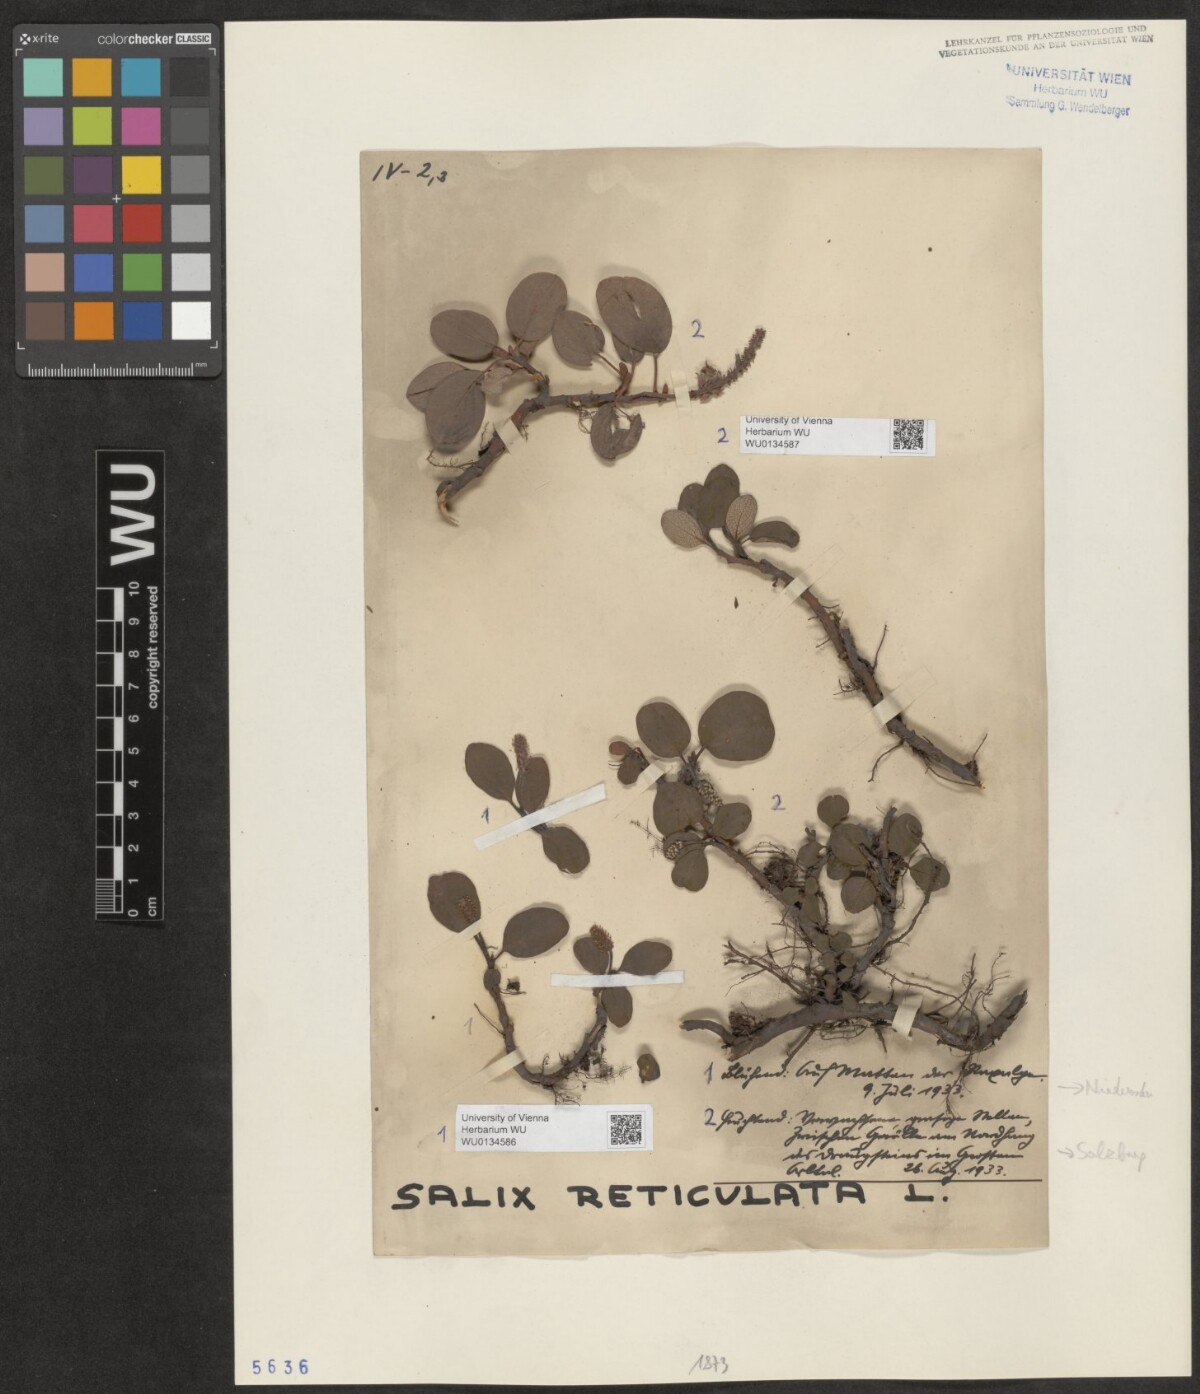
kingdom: Plantae
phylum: Tracheophyta
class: Magnoliopsida
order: Malpighiales
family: Salicaceae
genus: Salix
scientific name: Salix reticulata
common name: Net-leaved willow
